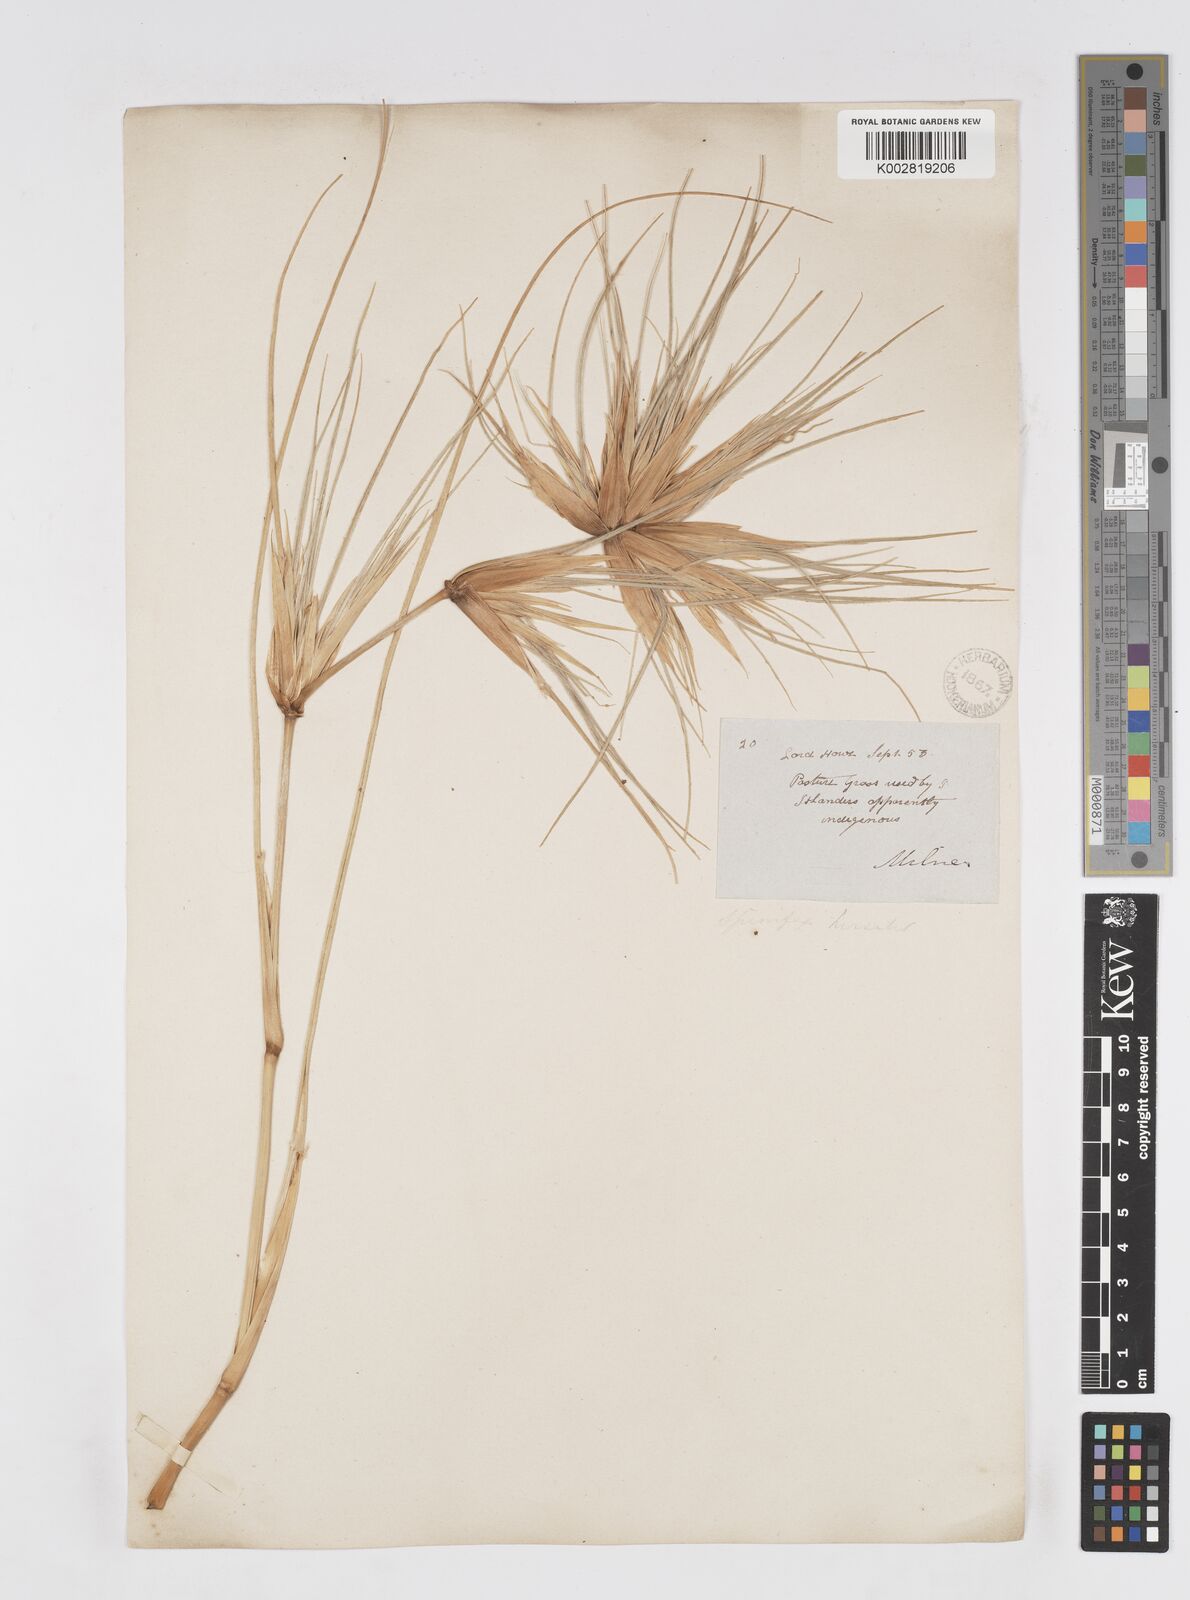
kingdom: Plantae
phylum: Tracheophyta
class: Liliopsida
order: Poales
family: Poaceae
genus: Spinifex
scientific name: Spinifex hirsutus
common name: Hairy spinifex
